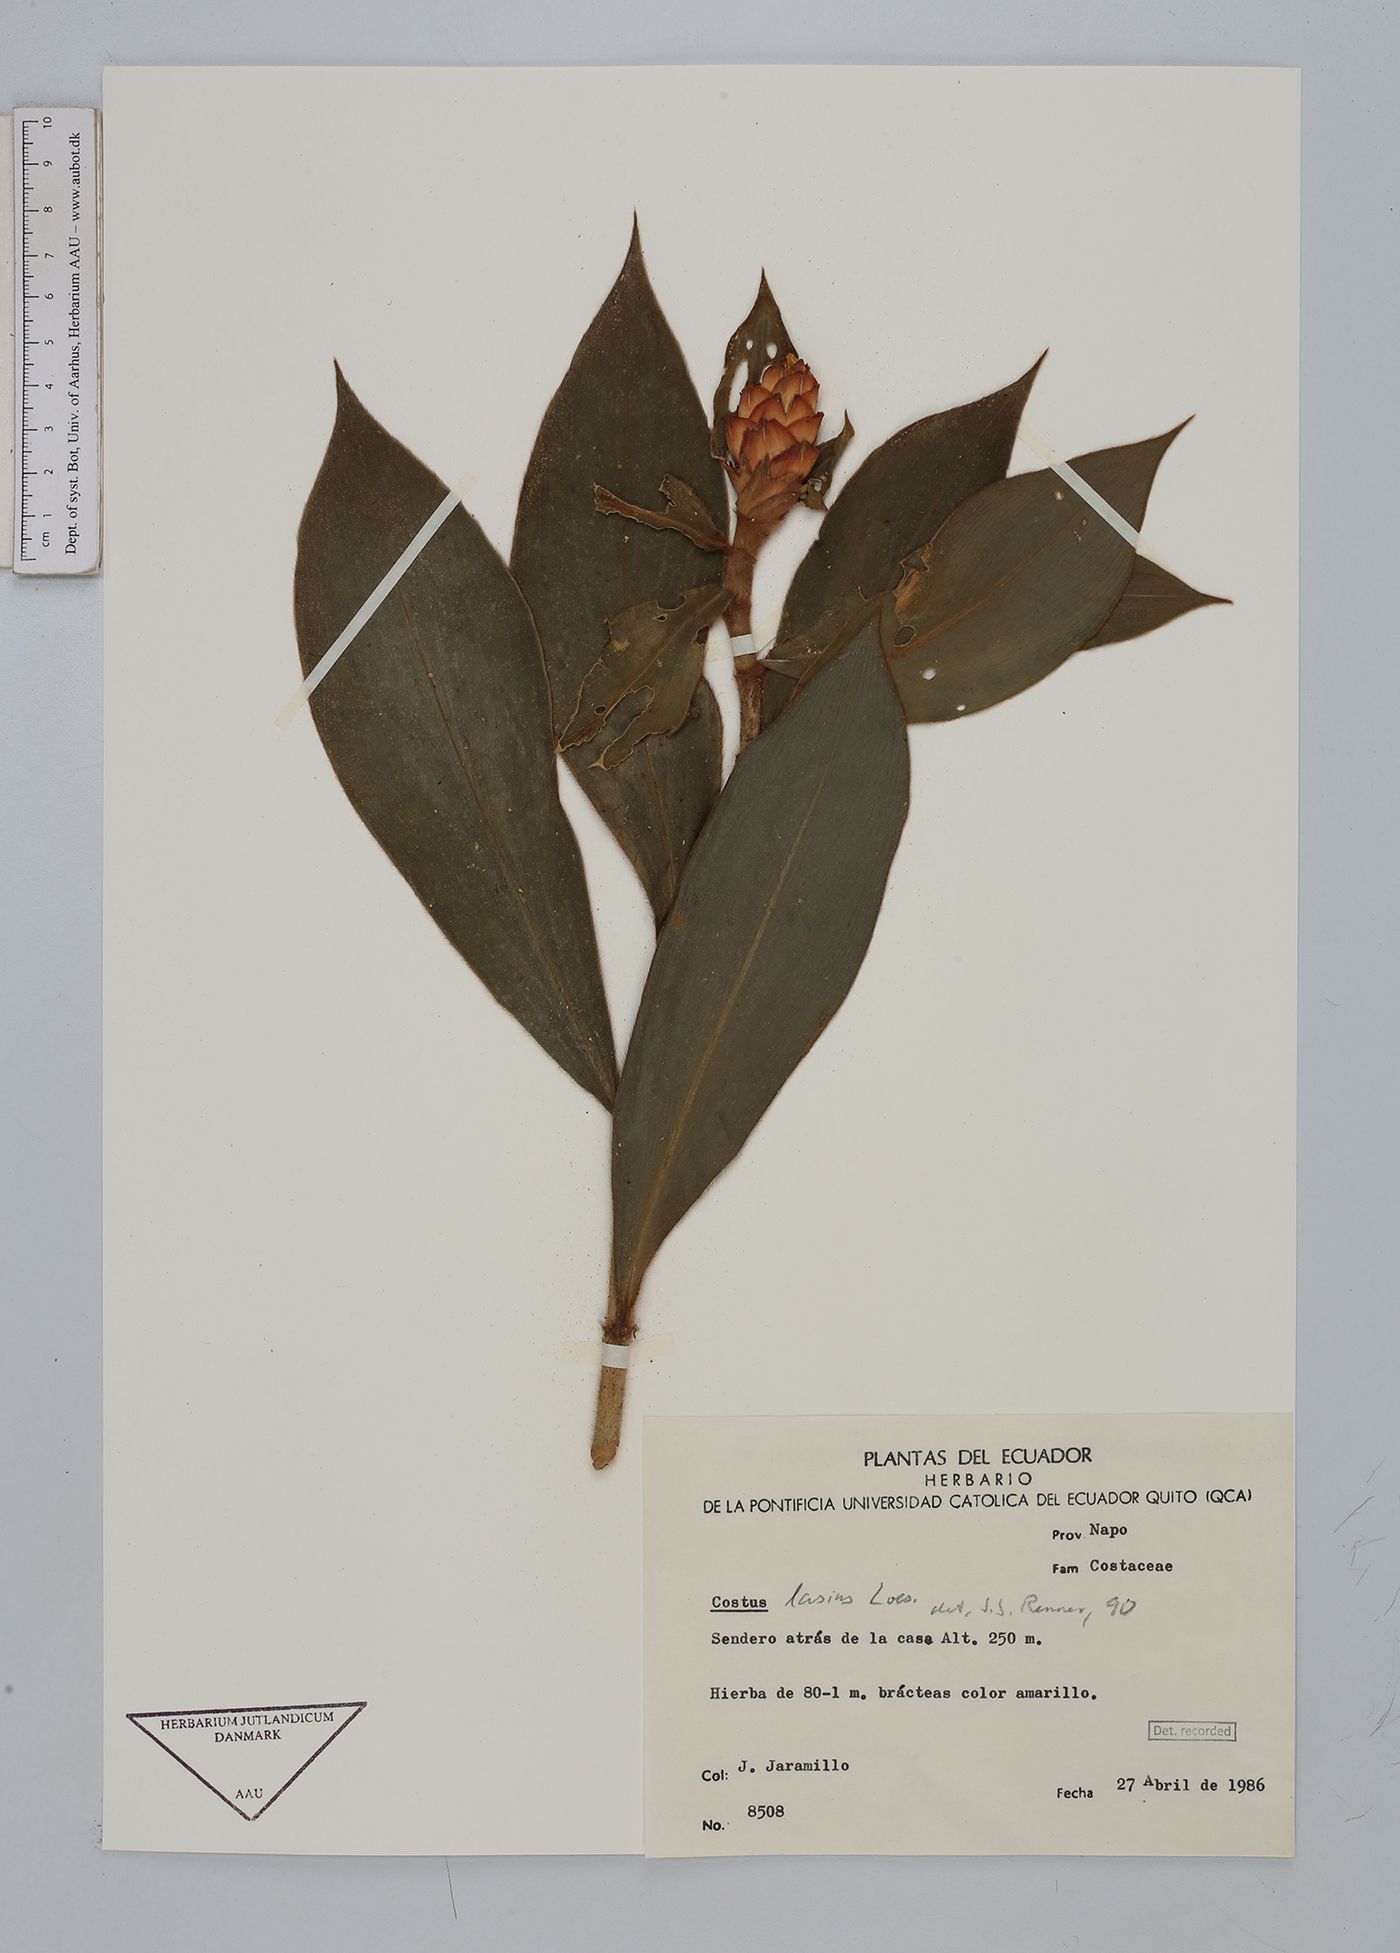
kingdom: Plantae
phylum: Tracheophyta
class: Liliopsida
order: Zingiberales
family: Costaceae
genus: Costus
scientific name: Costus lasius
